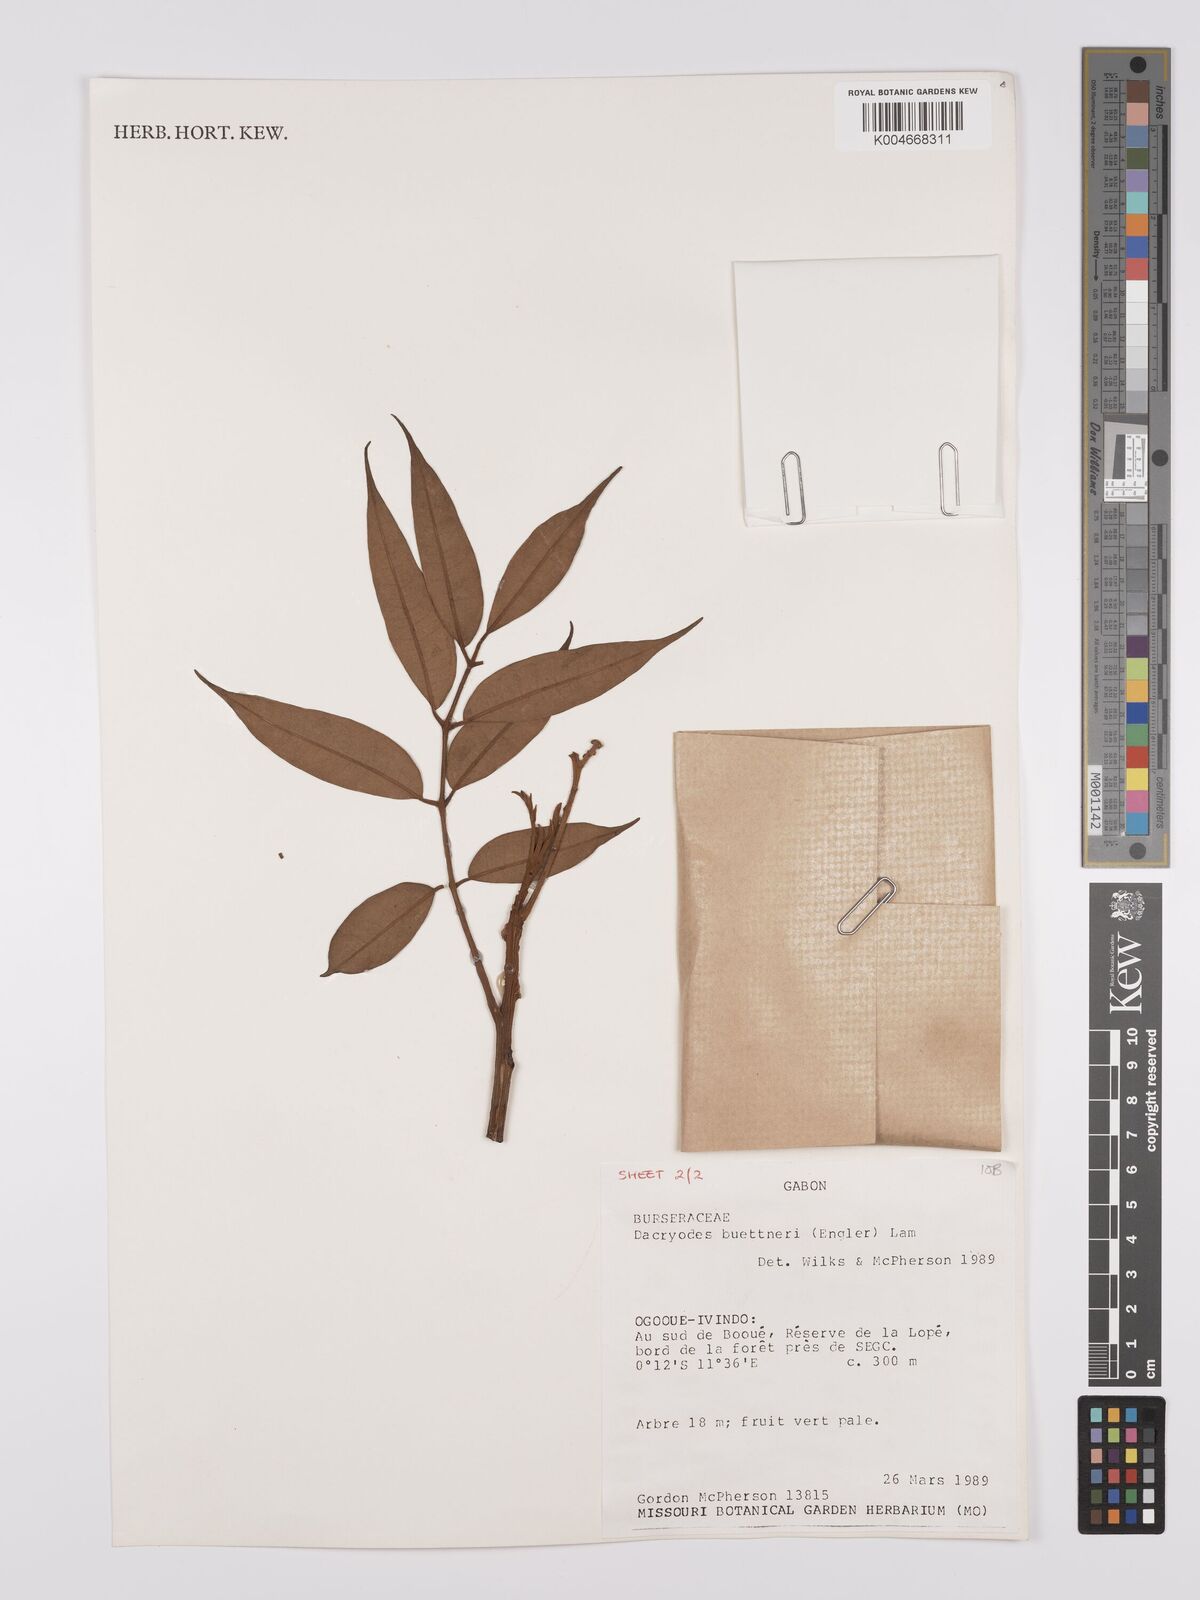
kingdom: Plantae
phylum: Tracheophyta
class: Magnoliopsida
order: Sapindales
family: Burseraceae
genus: Pachylobus
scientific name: Pachylobus buettneri
